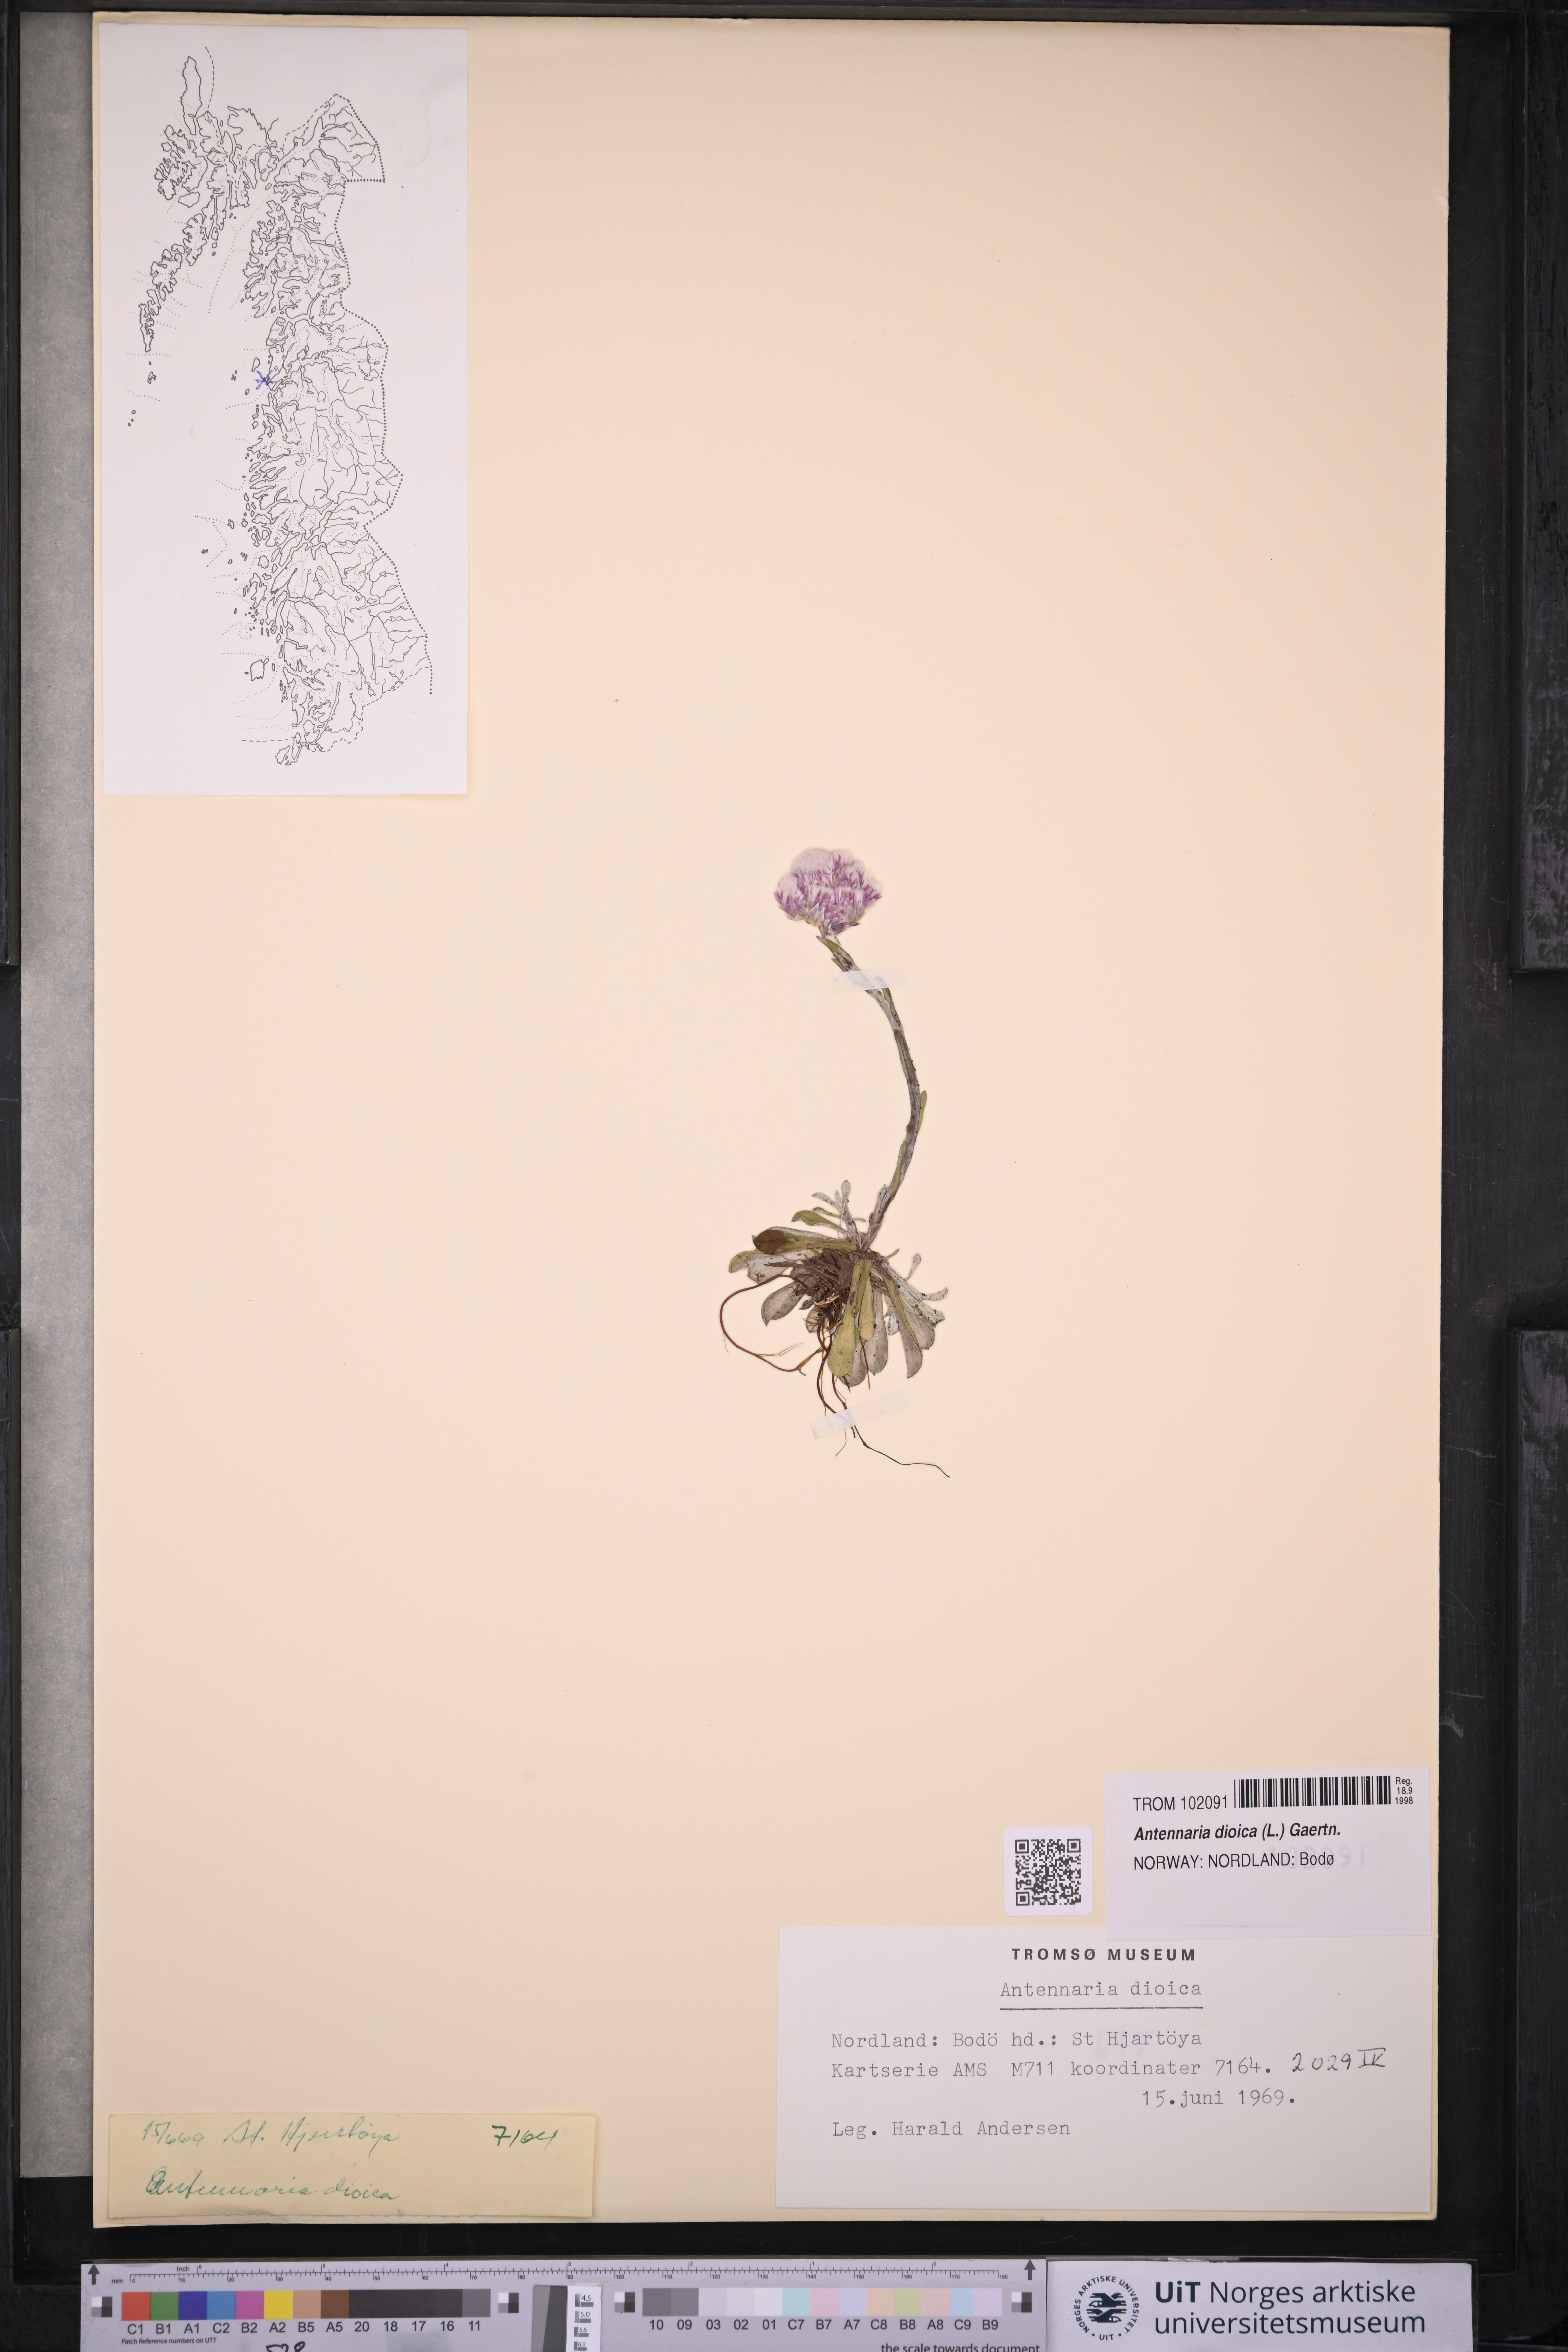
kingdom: Plantae
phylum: Tracheophyta
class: Magnoliopsida
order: Asterales
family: Asteraceae
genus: Antennaria
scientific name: Antennaria dioica
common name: Mountain everlasting
